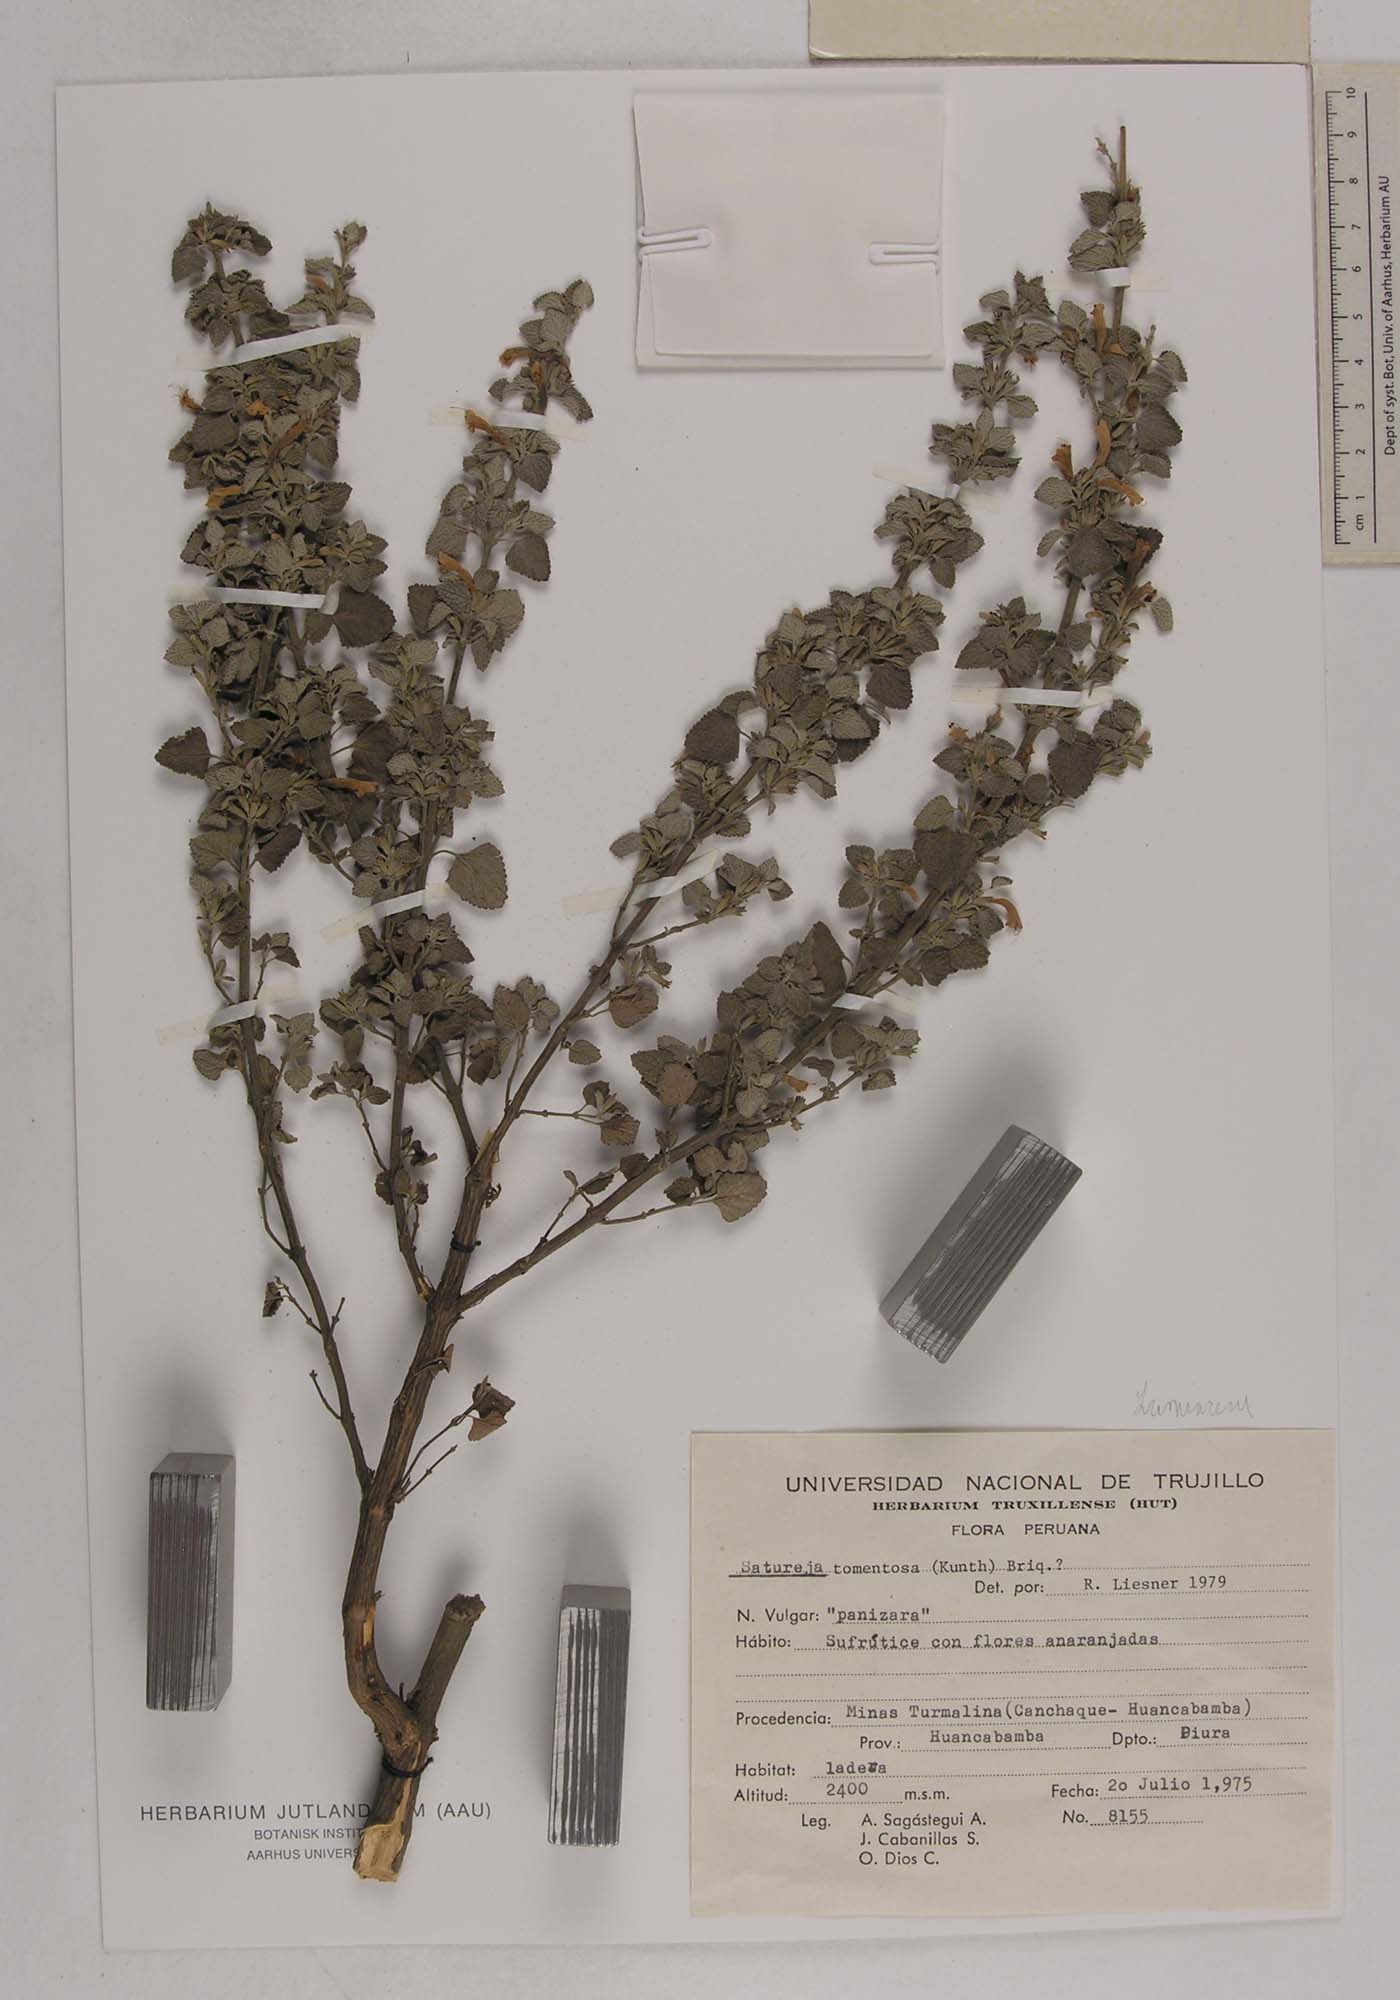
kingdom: Plantae
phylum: Tracheophyta
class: Magnoliopsida
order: Lamiales
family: Lamiaceae
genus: Clinopodium
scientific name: Clinopodium tomentosum
